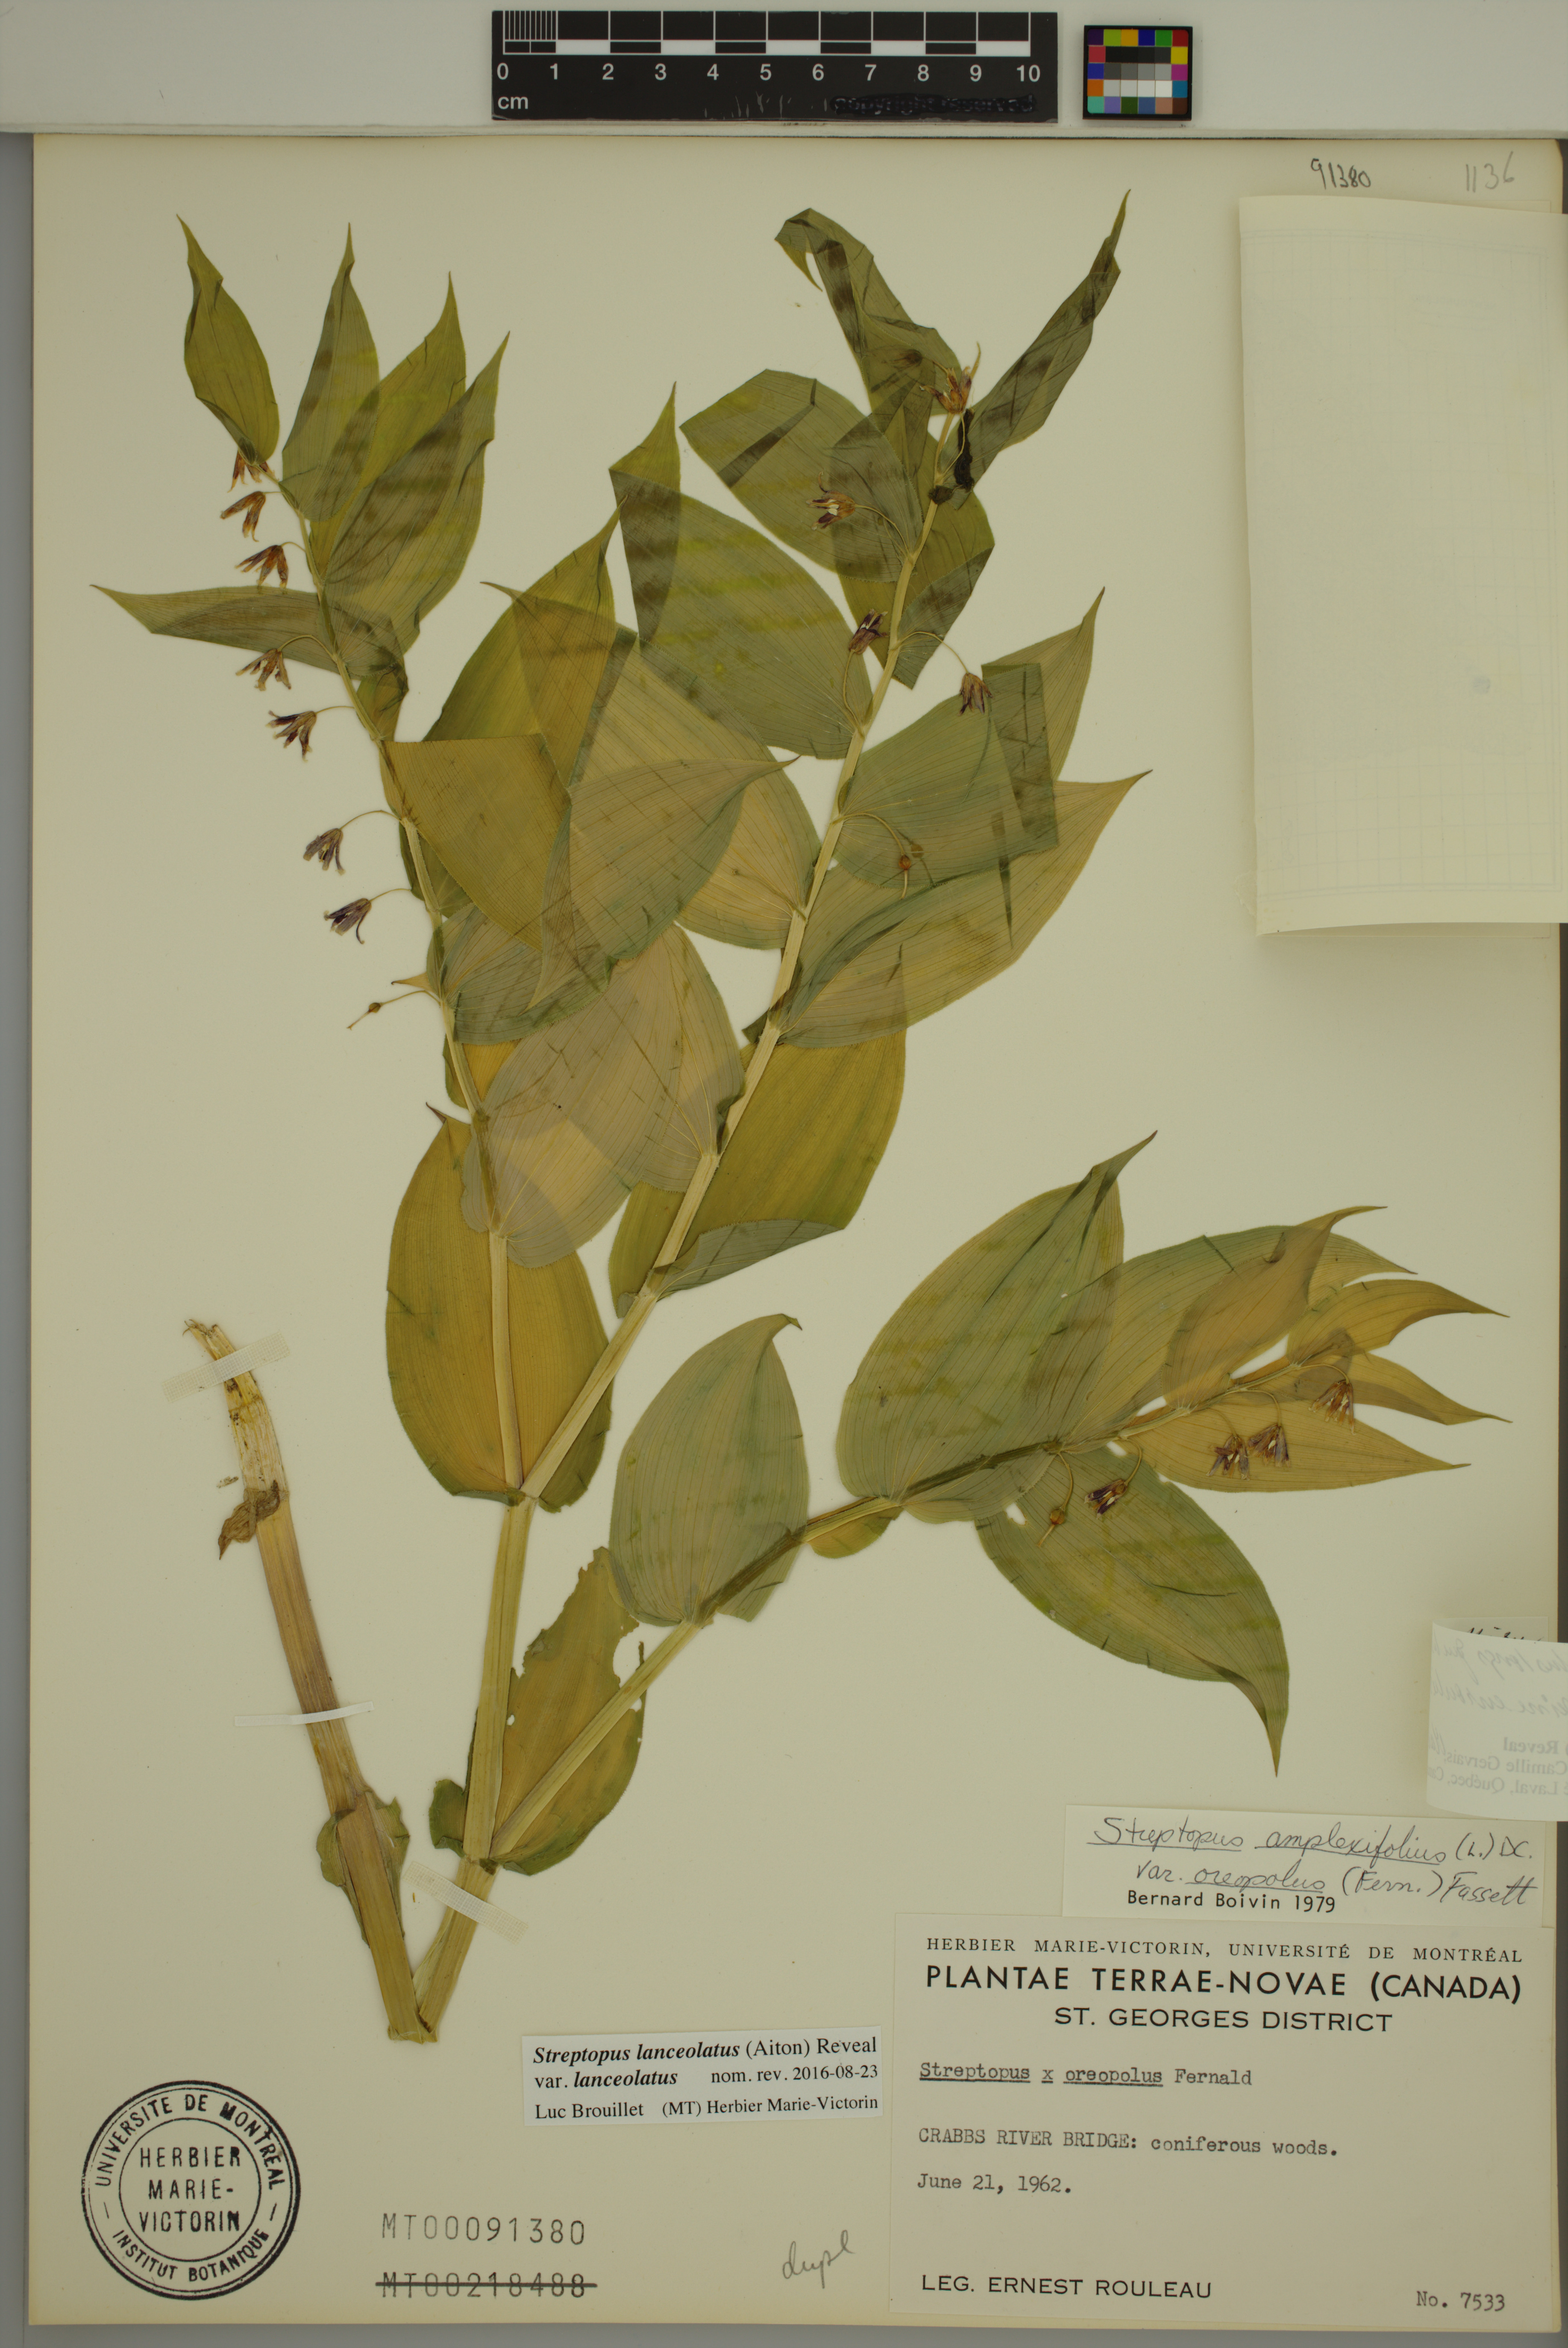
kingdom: Plantae
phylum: Tracheophyta
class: Liliopsida
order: Liliales
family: Liliaceae
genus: Streptopus
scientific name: Streptopus lanceolatus
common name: Rose mandarin
